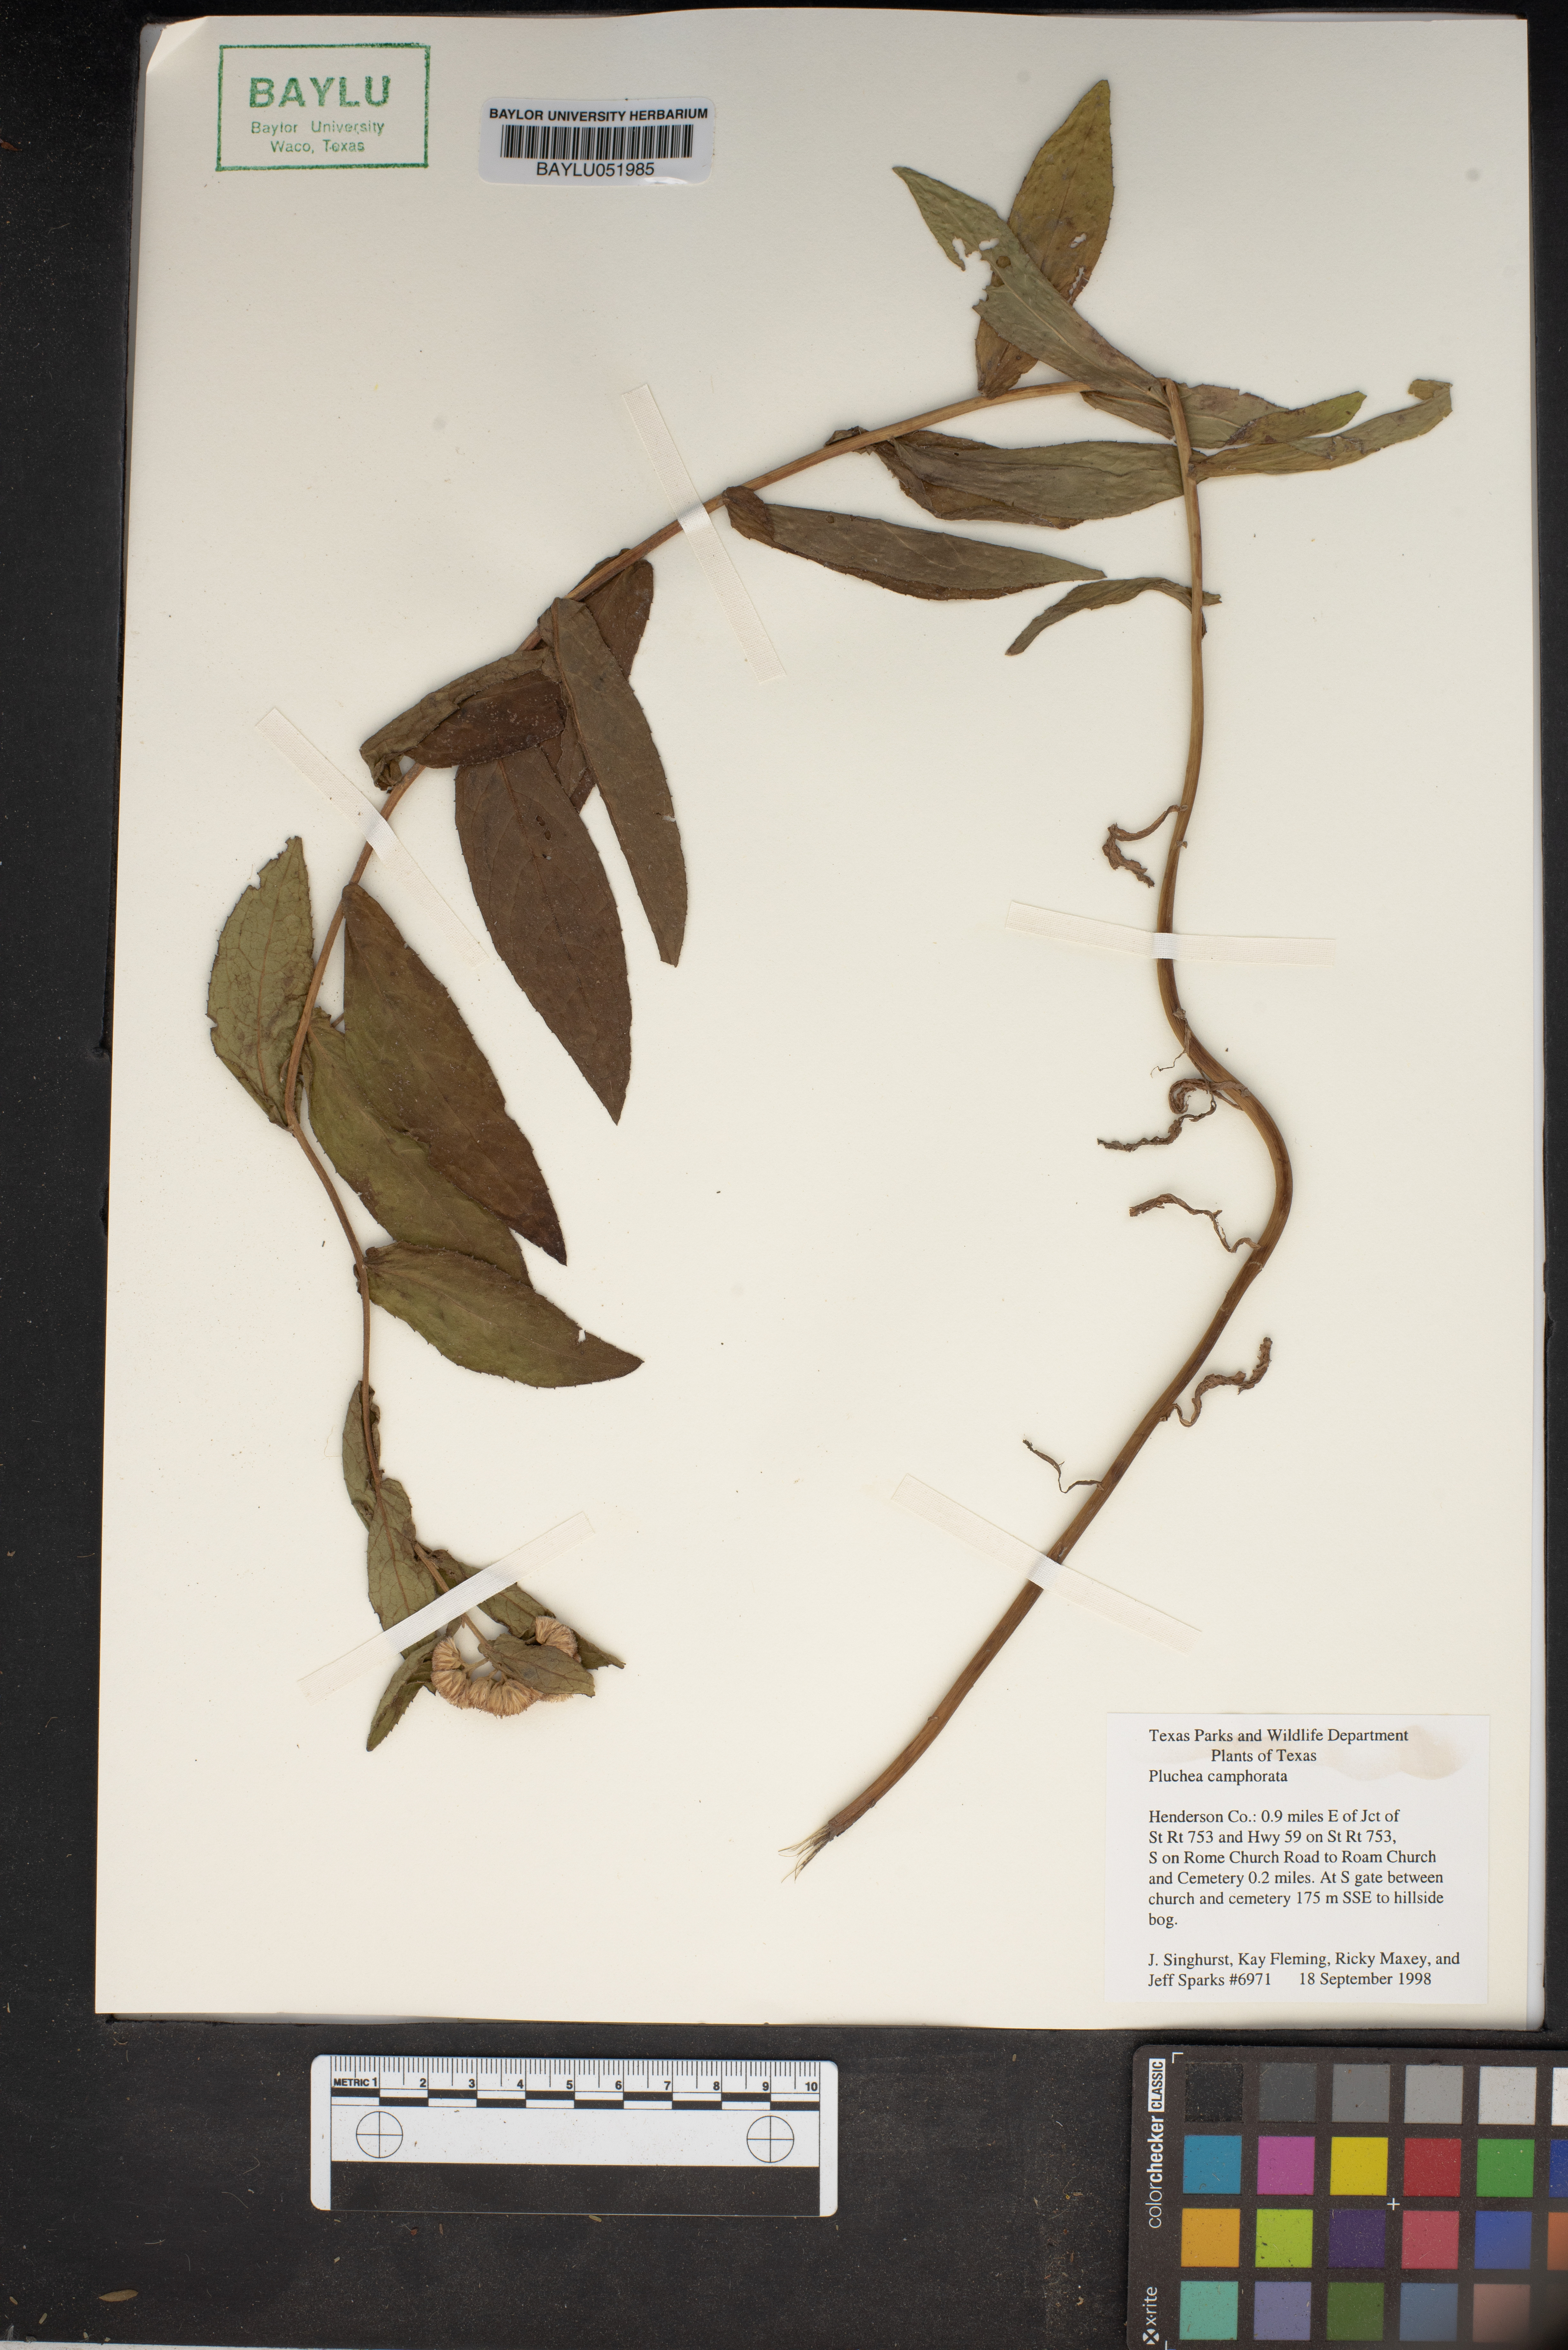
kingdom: Plantae
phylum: Tracheophyta
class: Magnoliopsida
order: Asterales
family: Asteraceae
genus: Pluchea
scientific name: Pluchea camphorata
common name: Camphor pluchea
